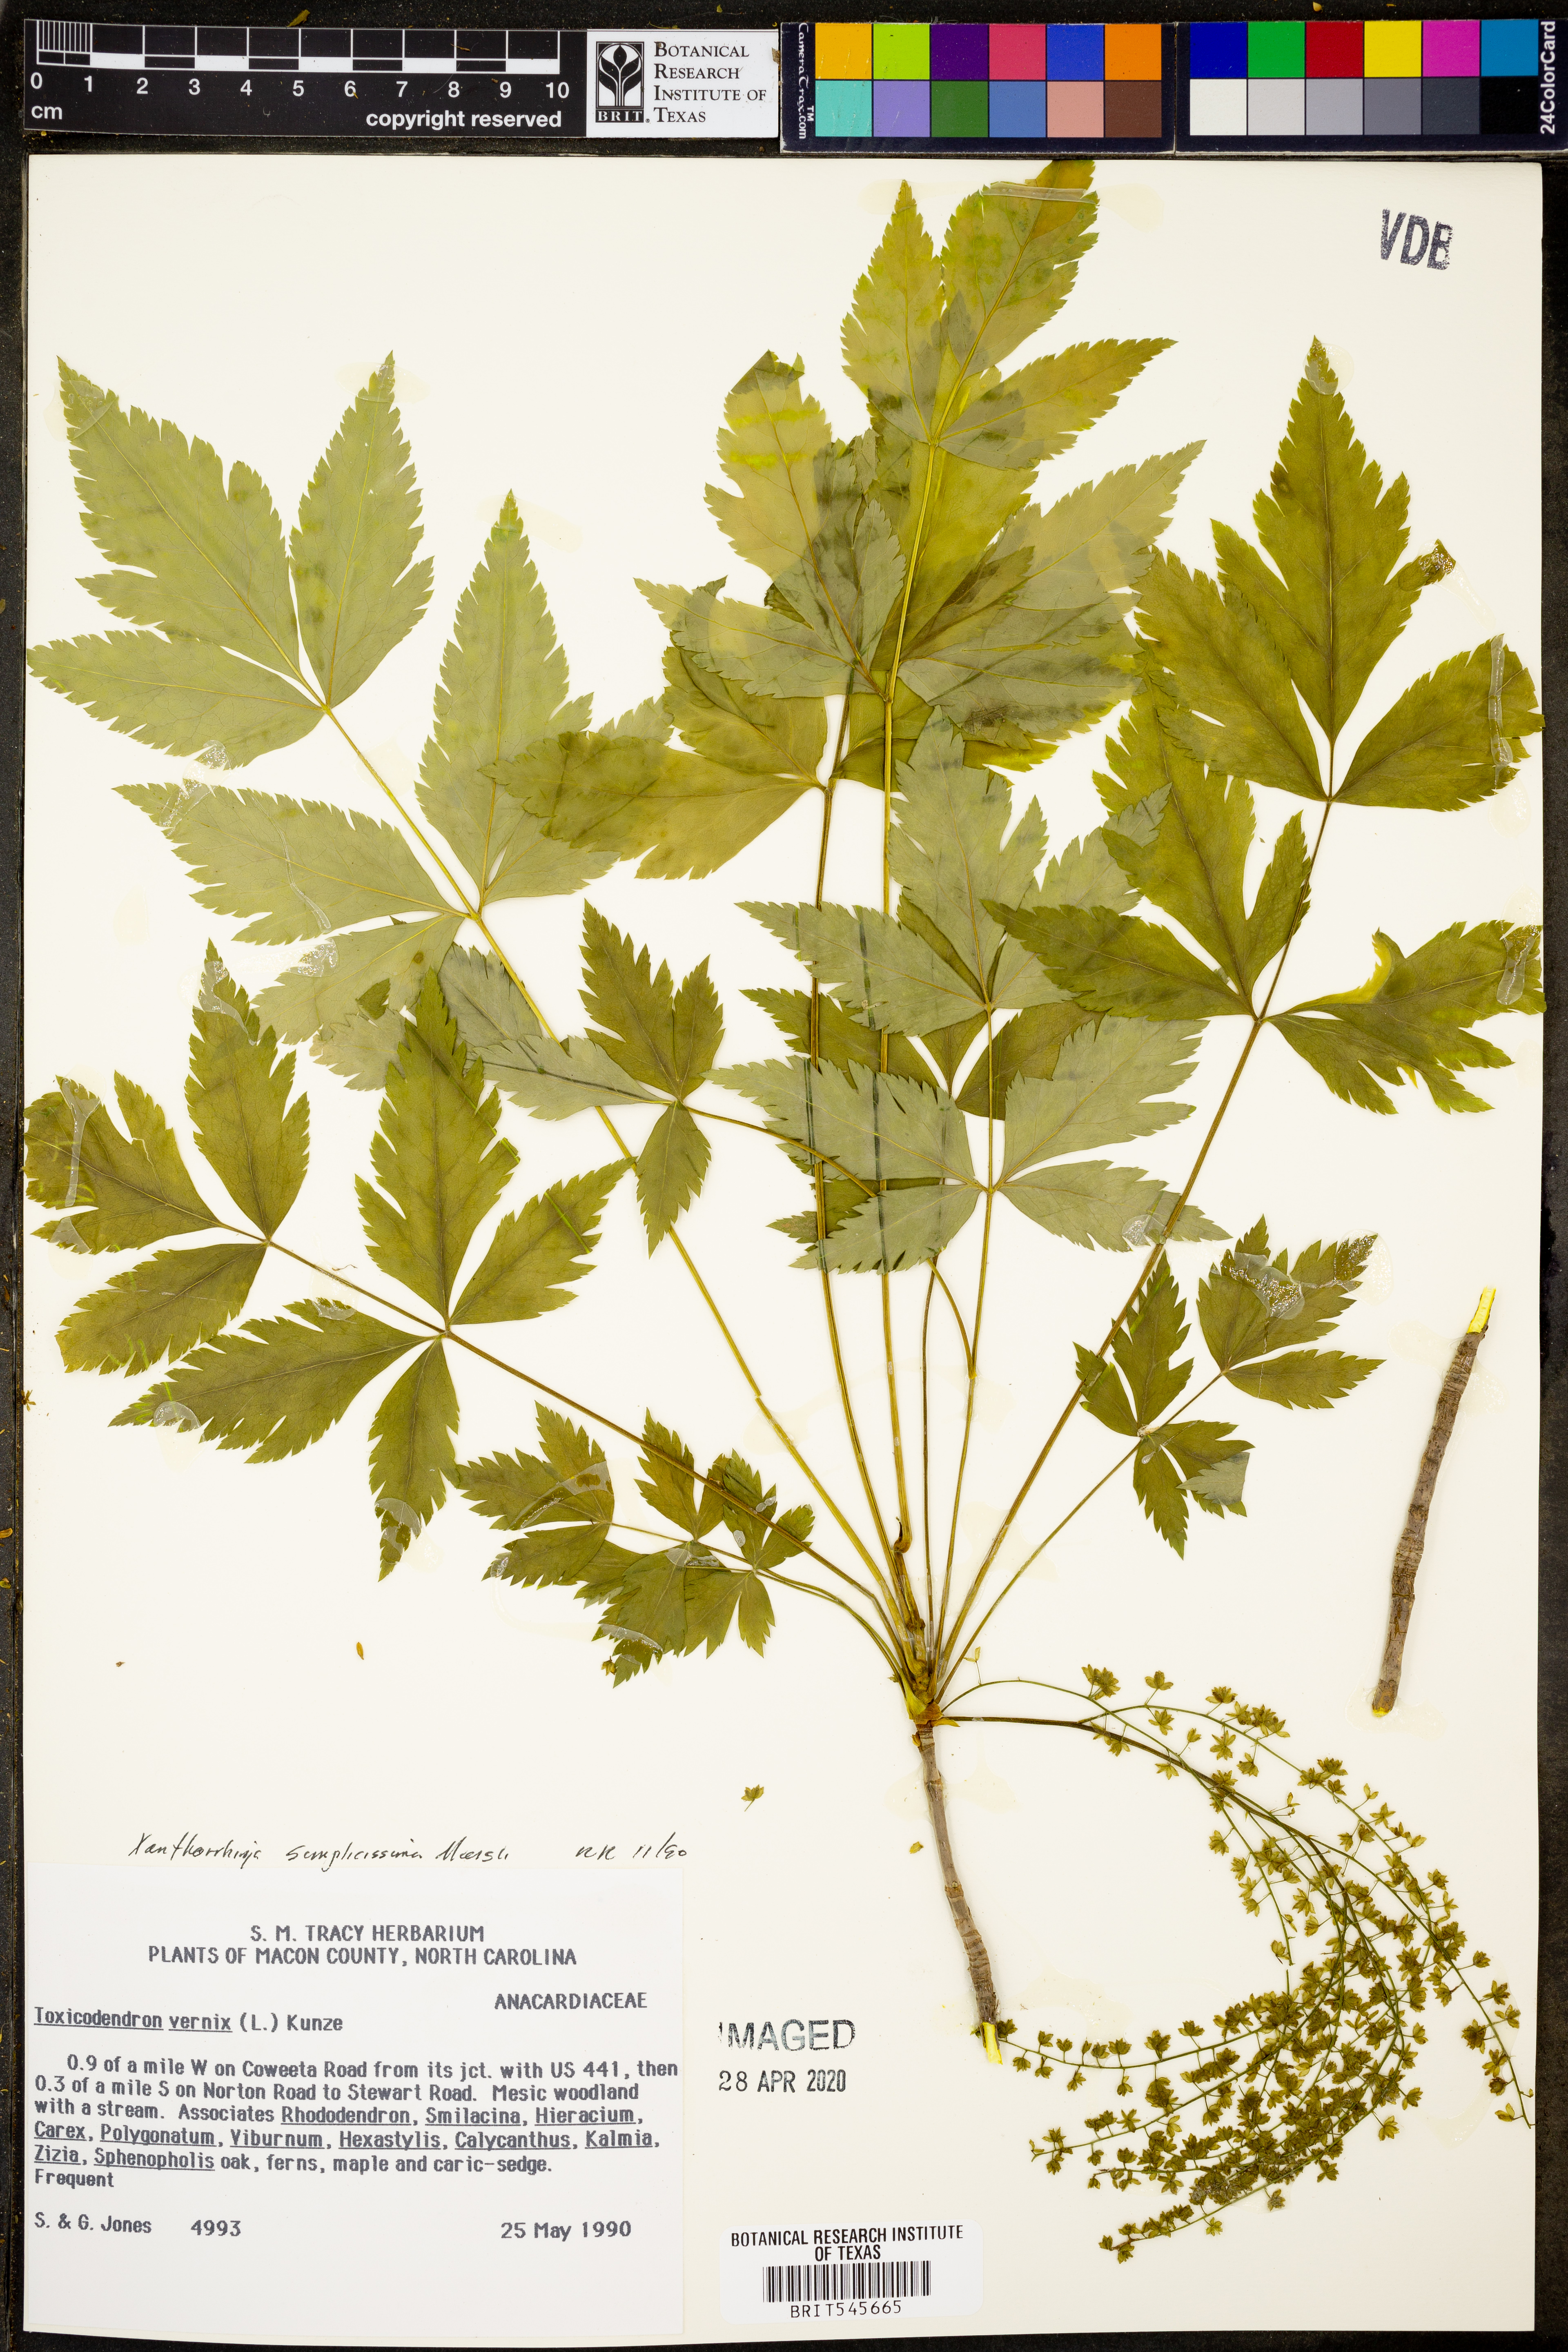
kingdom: Plantae
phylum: Tracheophyta
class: Magnoliopsida
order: Ranunculales
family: Ranunculaceae
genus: Xanthorhiza
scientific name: Xanthorhiza simplicissima
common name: Yellowroot
